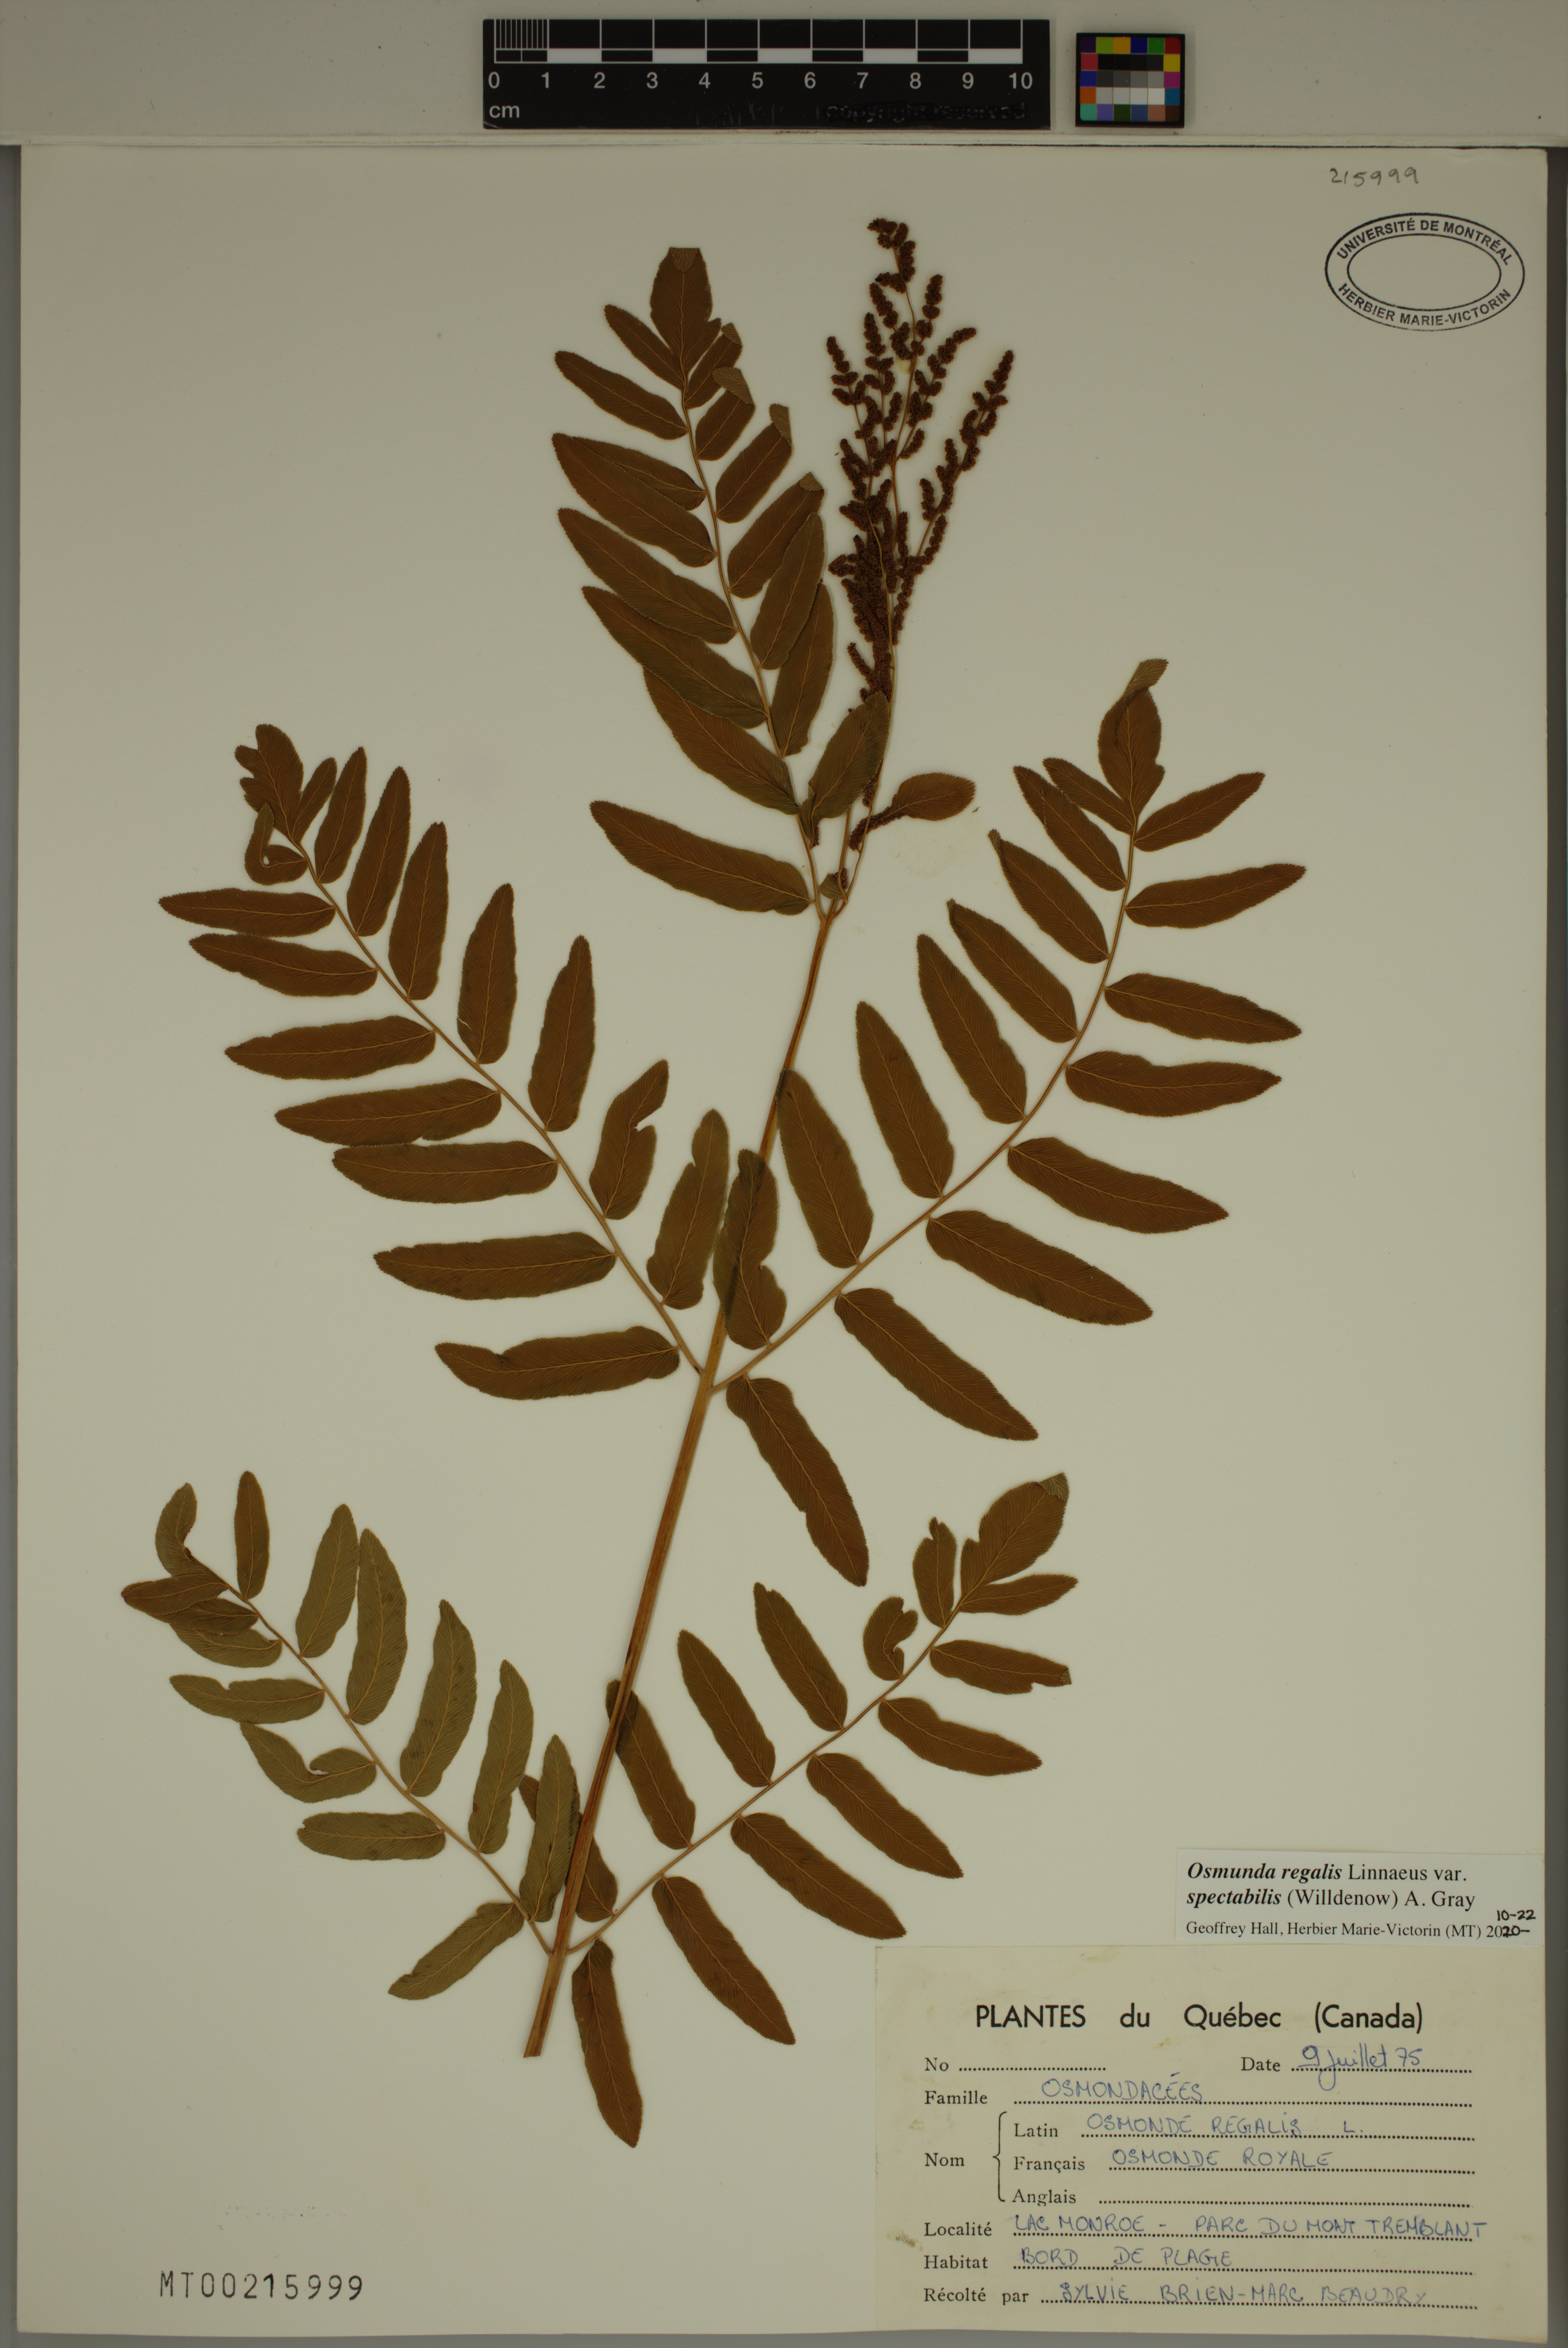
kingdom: Plantae
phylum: Tracheophyta
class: Polypodiopsida
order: Osmundales
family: Osmundaceae
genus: Osmunda
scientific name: Osmunda spectabilis
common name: American royal fern
